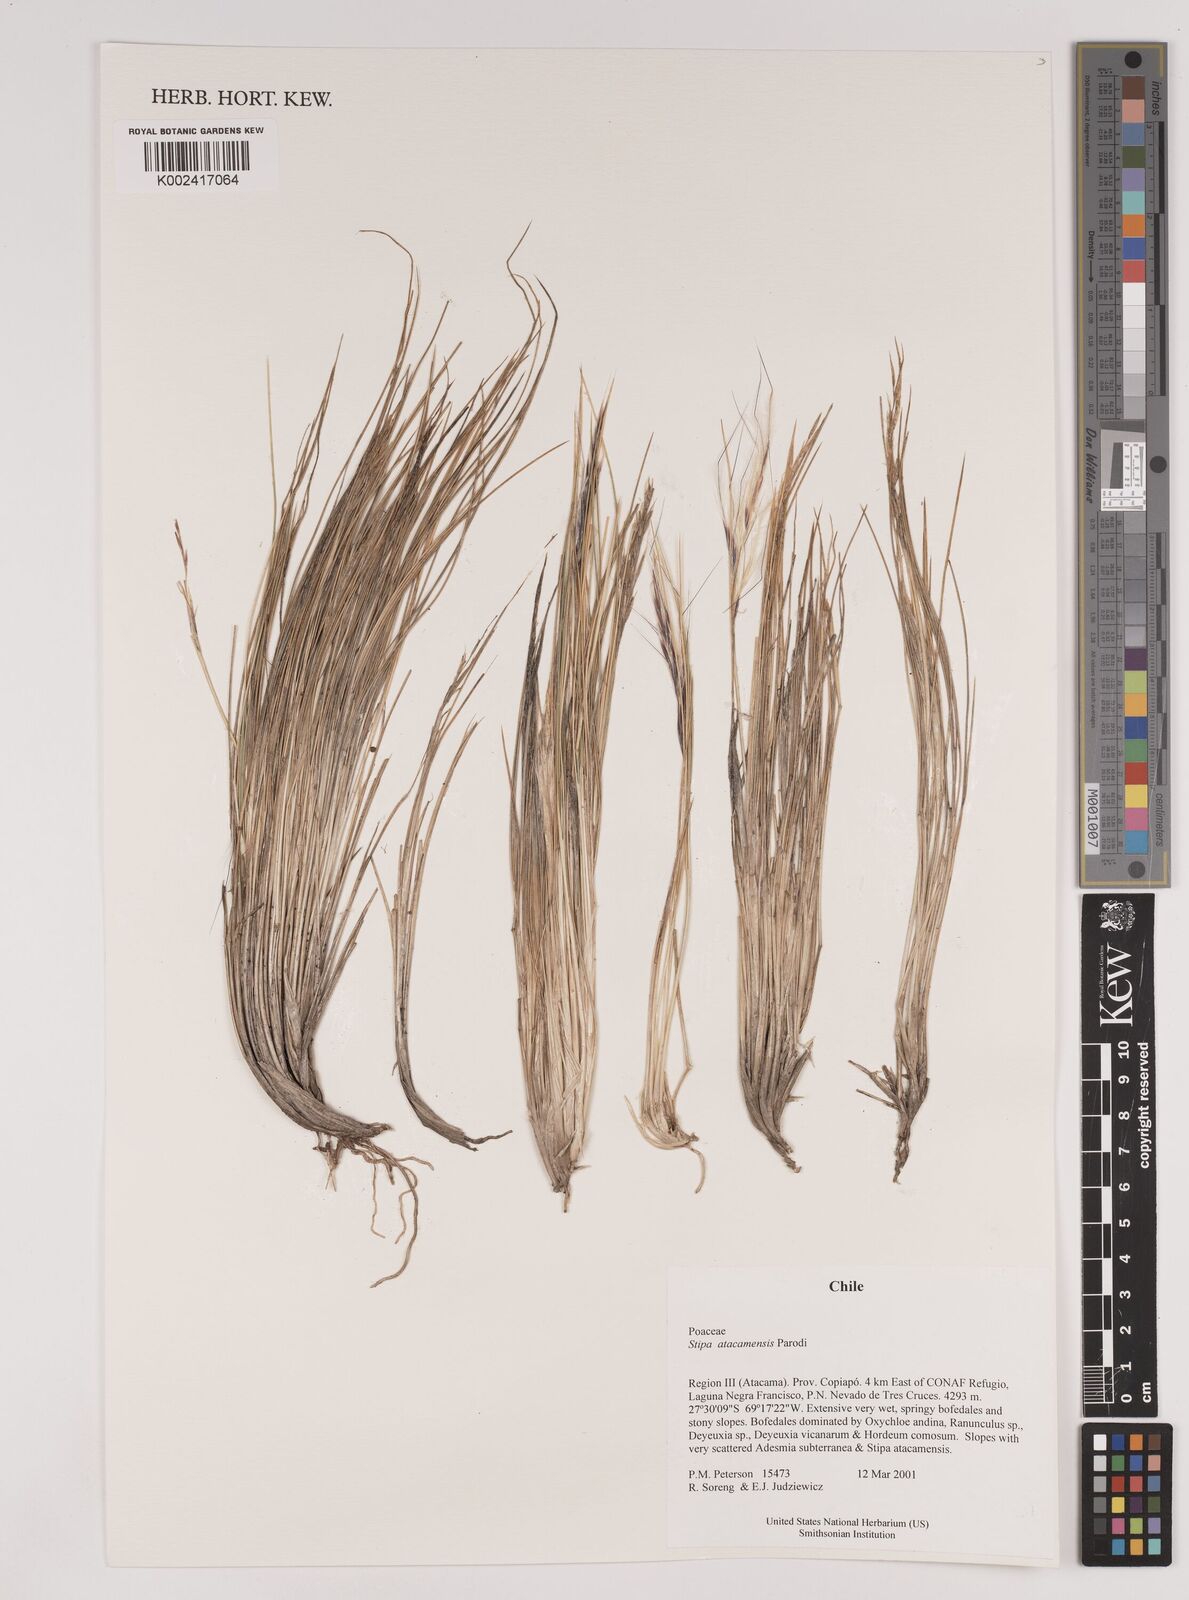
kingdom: Plantae
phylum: Tracheophyta
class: Liliopsida
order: Poales
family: Poaceae
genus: Pappostipa
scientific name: Pappostipa atacamensis
